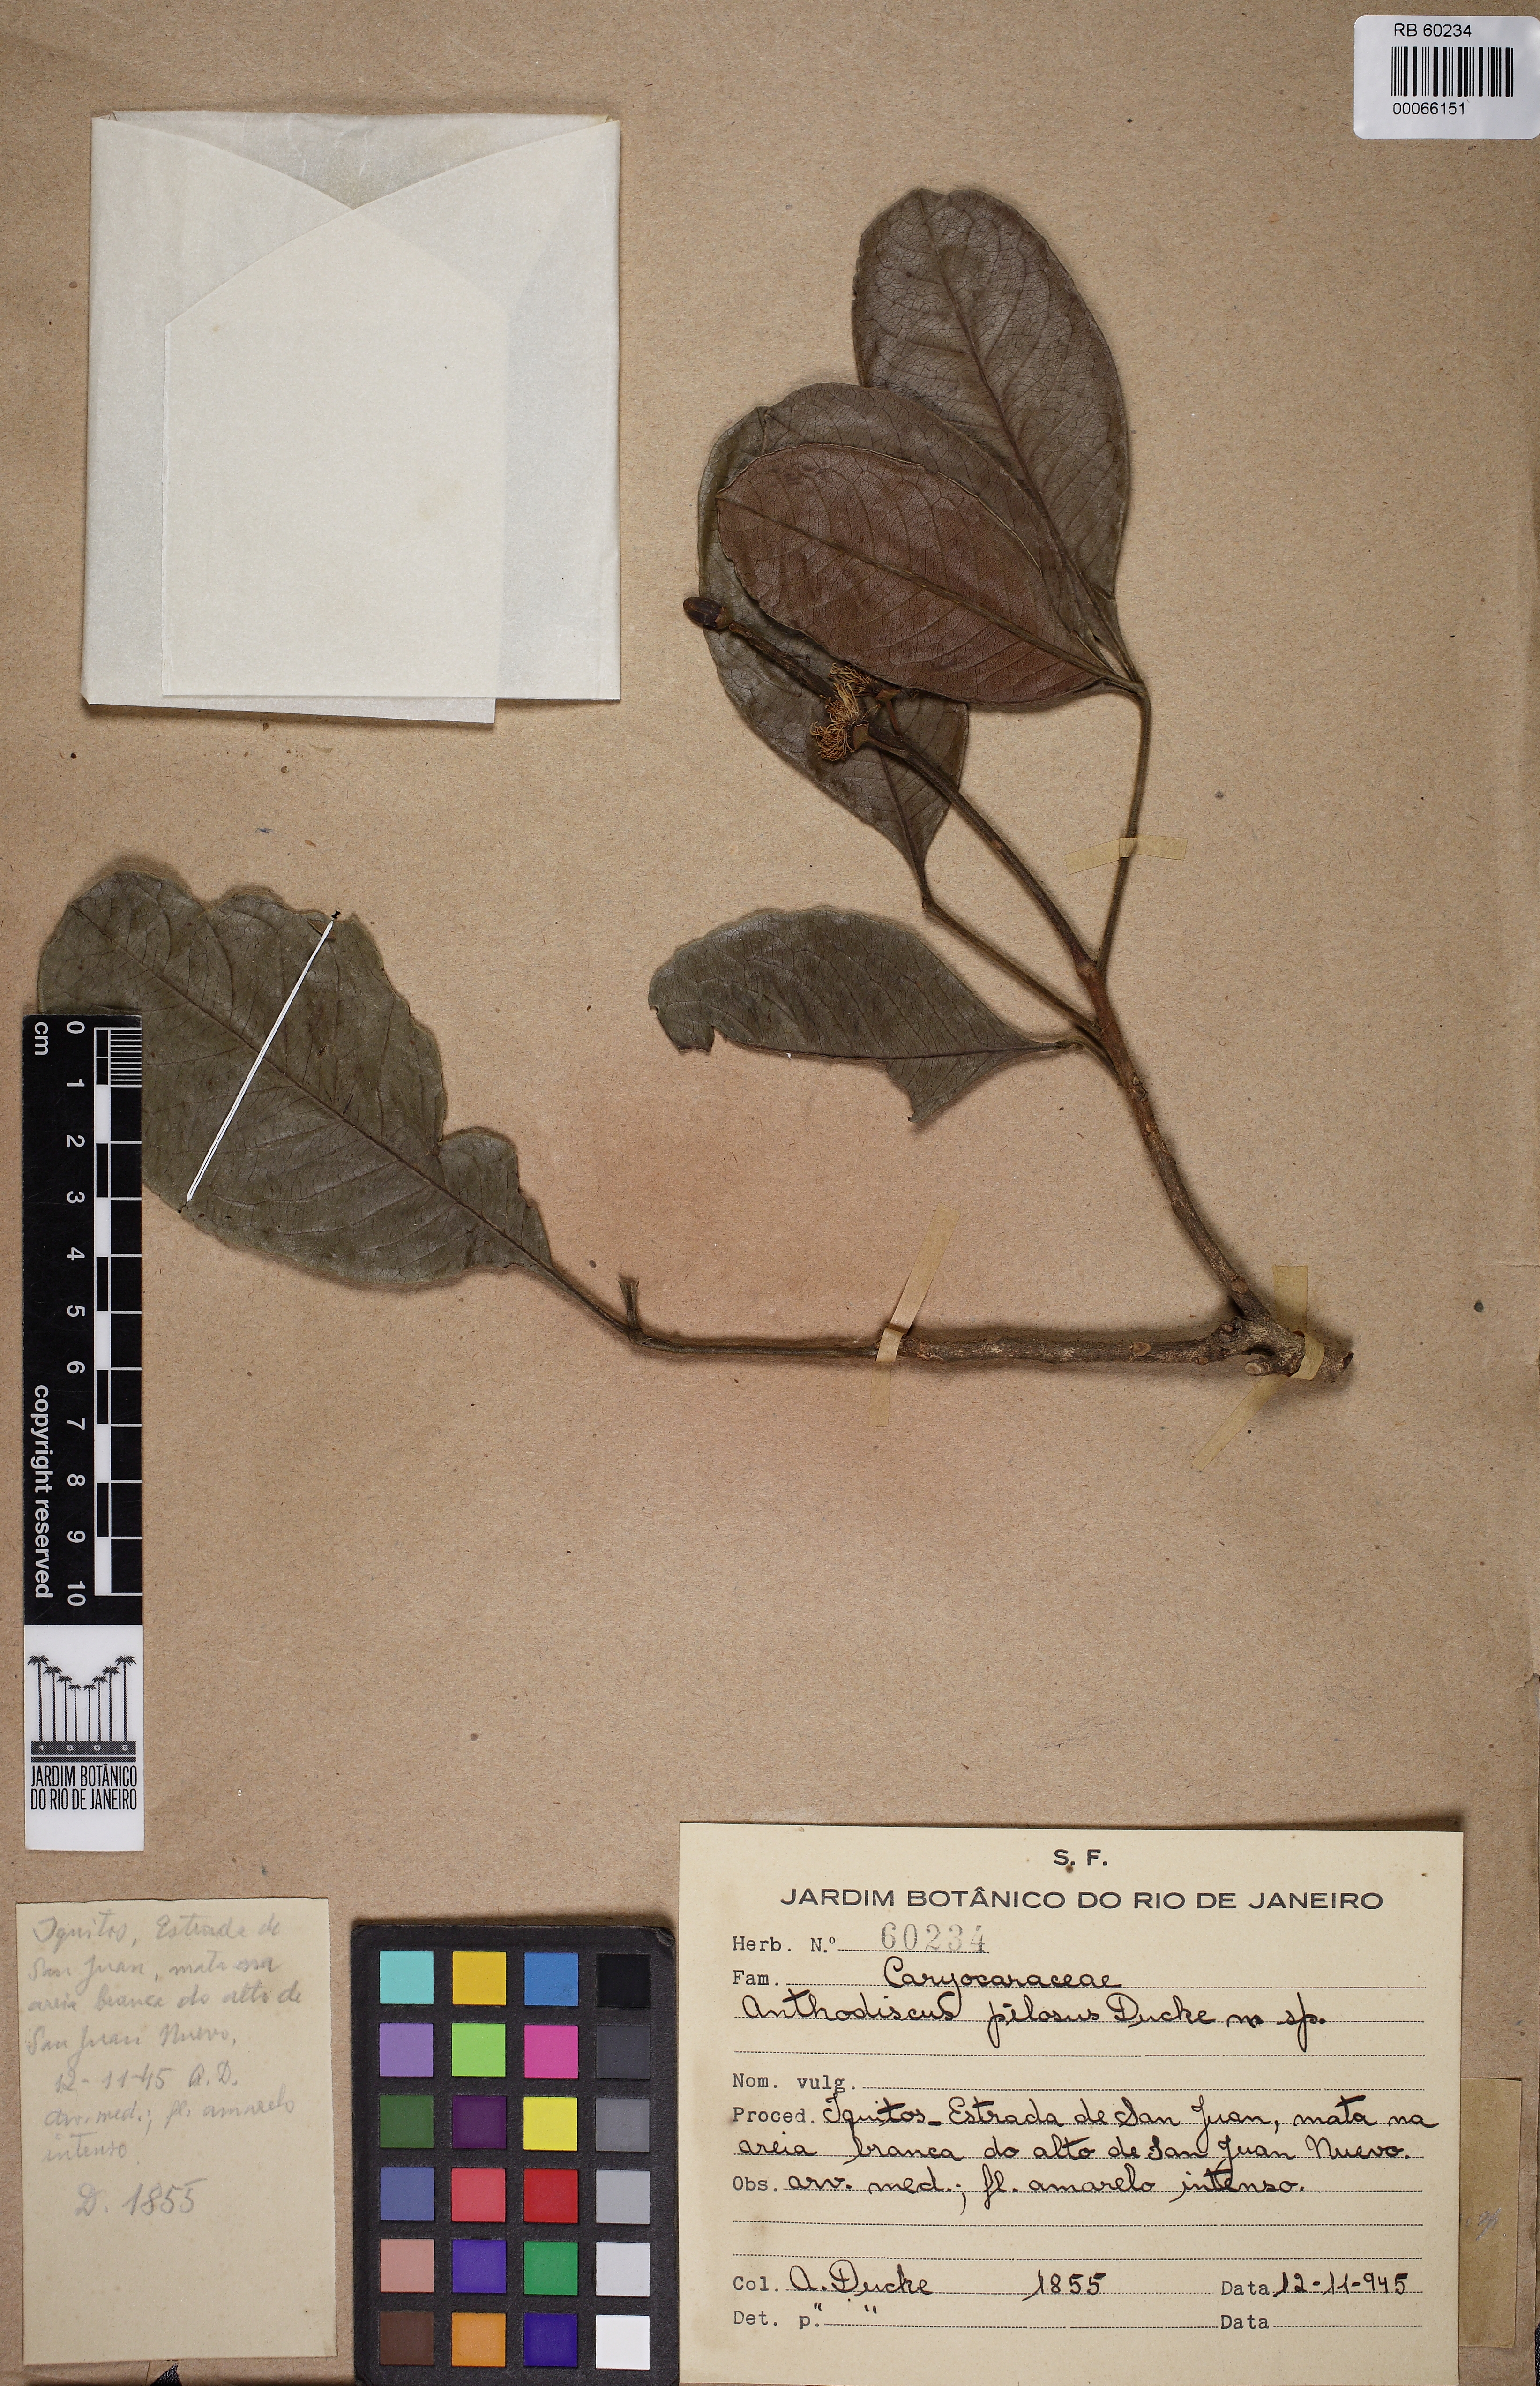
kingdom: Plantae
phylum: Tracheophyta
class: Magnoliopsida
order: Malpighiales
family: Caryocaraceae
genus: Anthodiscus
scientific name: Anthodiscus pilosus
